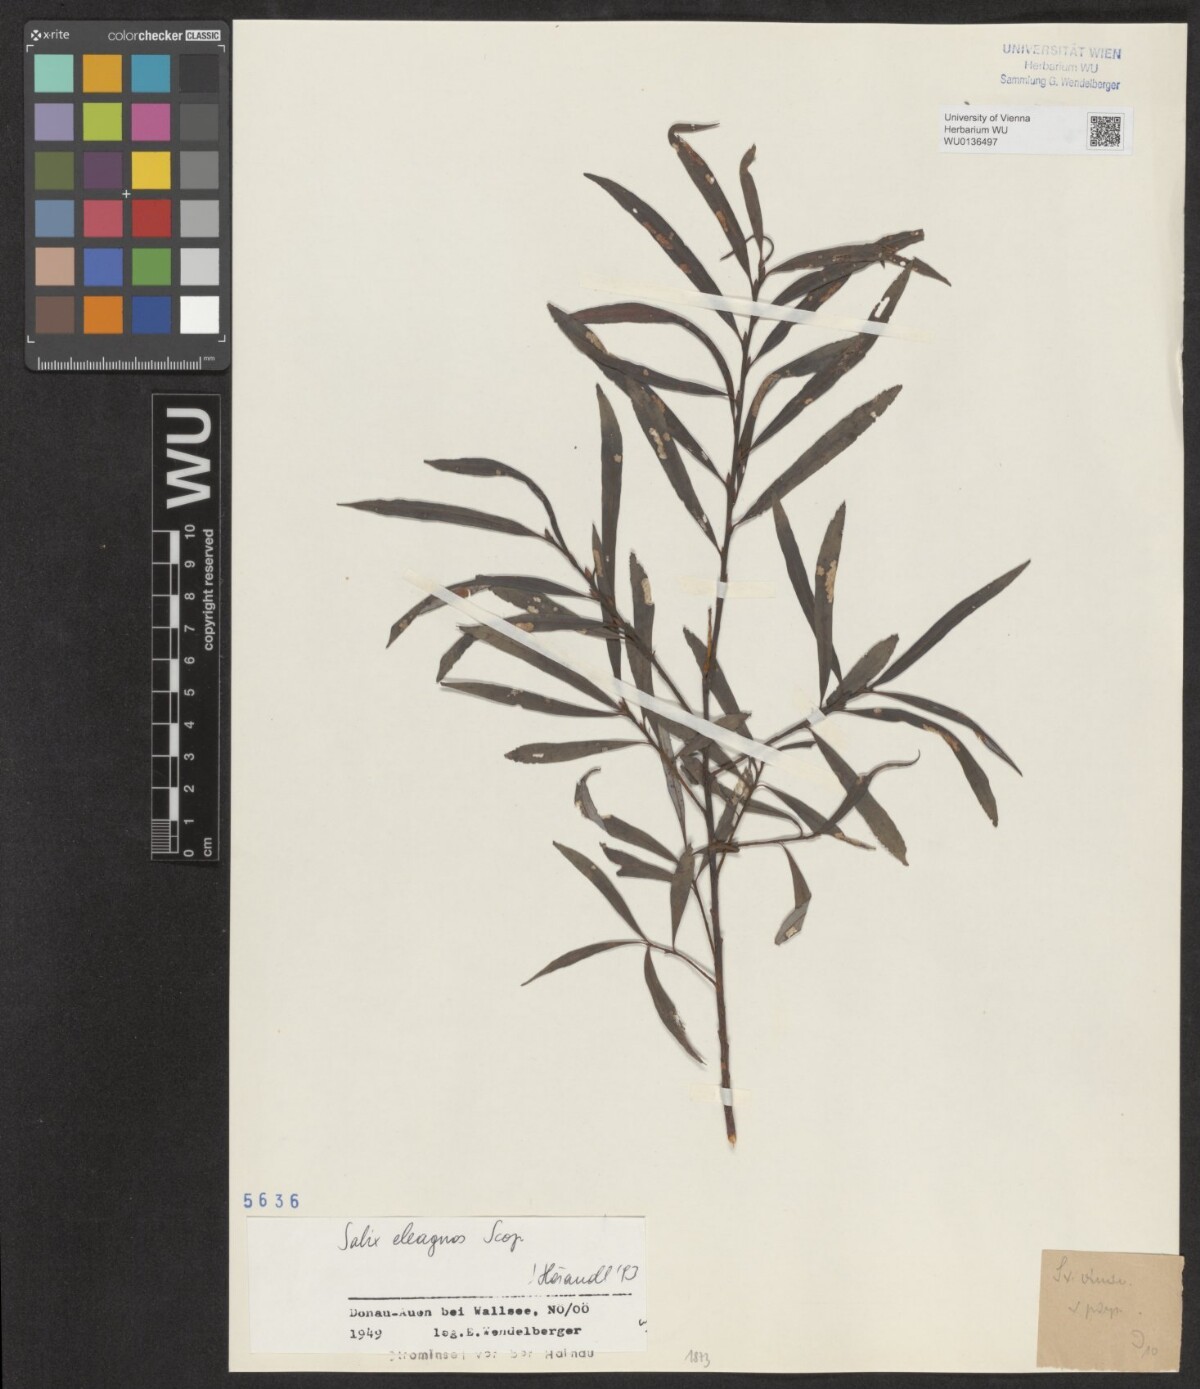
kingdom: Plantae
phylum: Tracheophyta
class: Magnoliopsida
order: Malpighiales
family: Salicaceae
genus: Salix
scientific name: Salix eleagnos
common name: Elaeagnus willow
